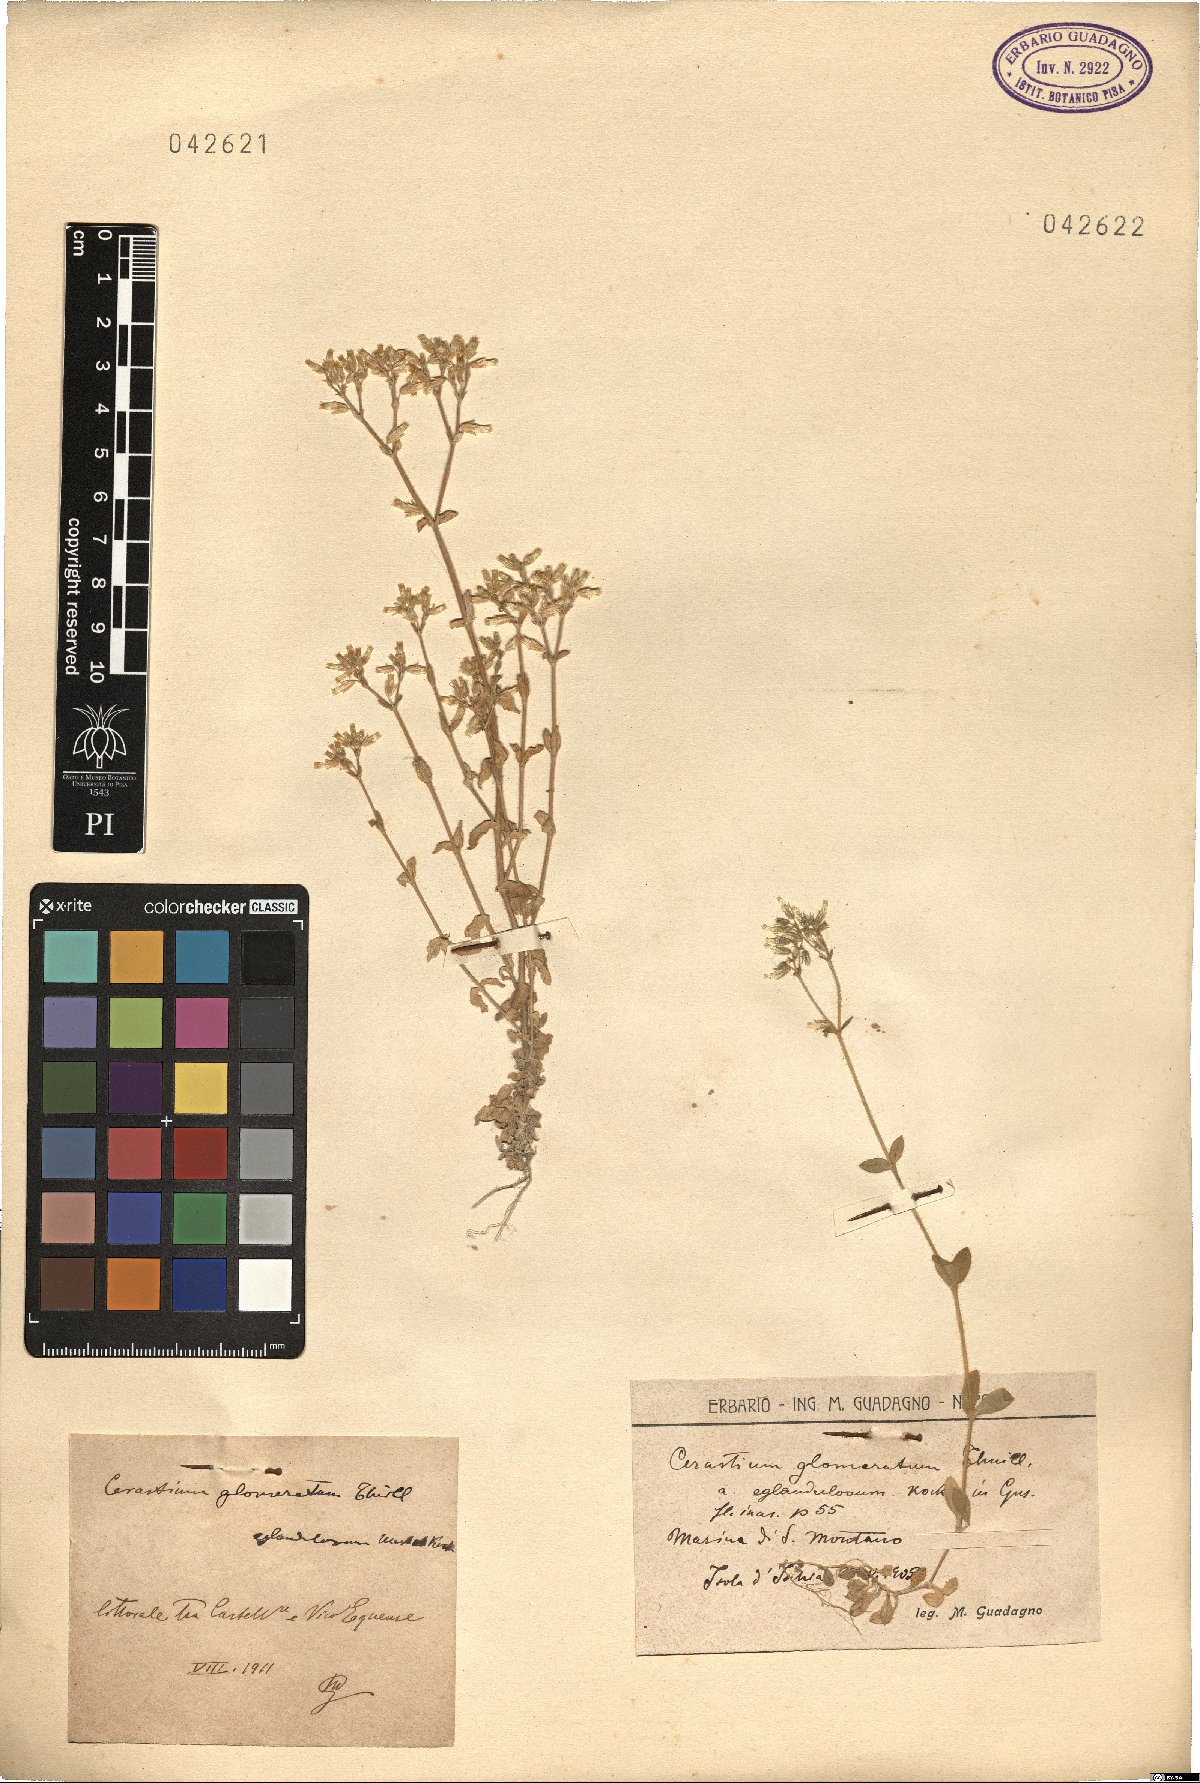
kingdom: Plantae
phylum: Tracheophyta
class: Magnoliopsida
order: Caryophyllales
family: Caryophyllaceae
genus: Cerastium
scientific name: Cerastium glomeratum
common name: Sticky chickweed
